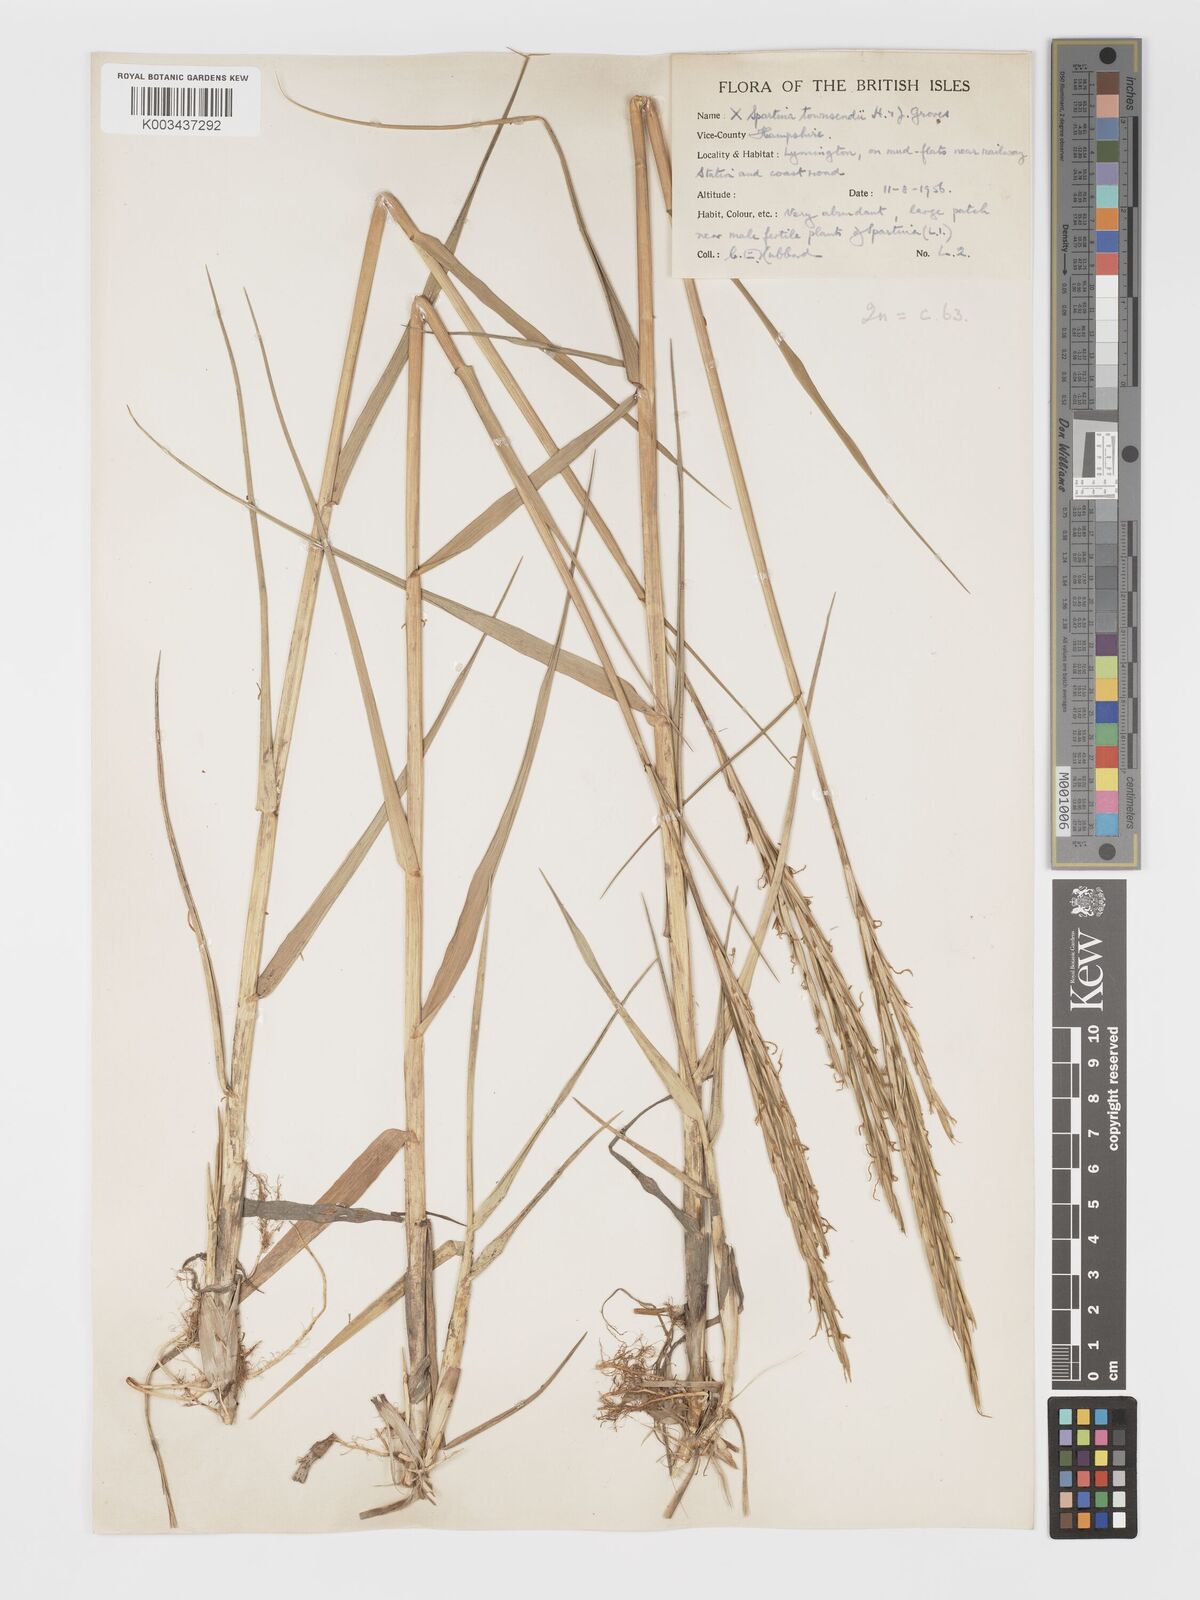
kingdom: Plantae
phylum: Tracheophyta
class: Liliopsida
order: Poales
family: Poaceae
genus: Sporobolus
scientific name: Sporobolus townsendii
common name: Townsend's cordgrass
